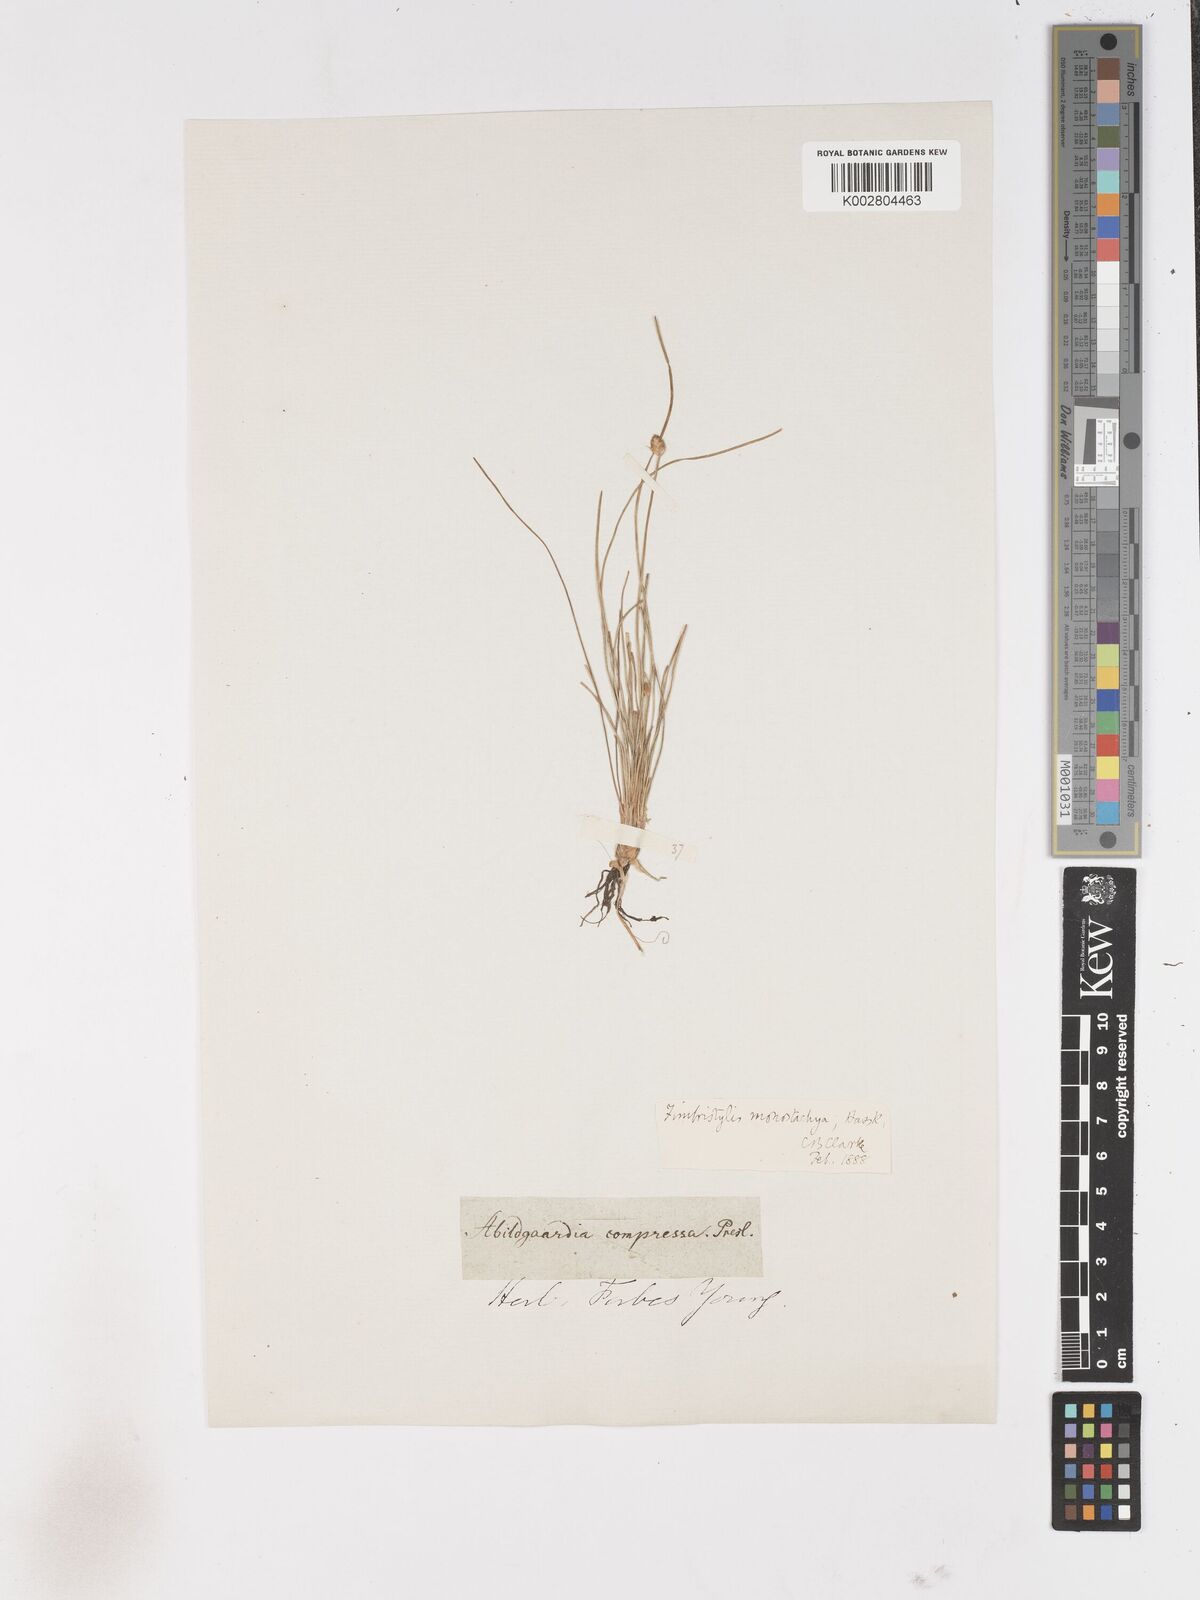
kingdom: Plantae
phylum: Tracheophyta
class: Liliopsida
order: Poales
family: Cyperaceae
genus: Abildgaardia
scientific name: Abildgaardia ovata
